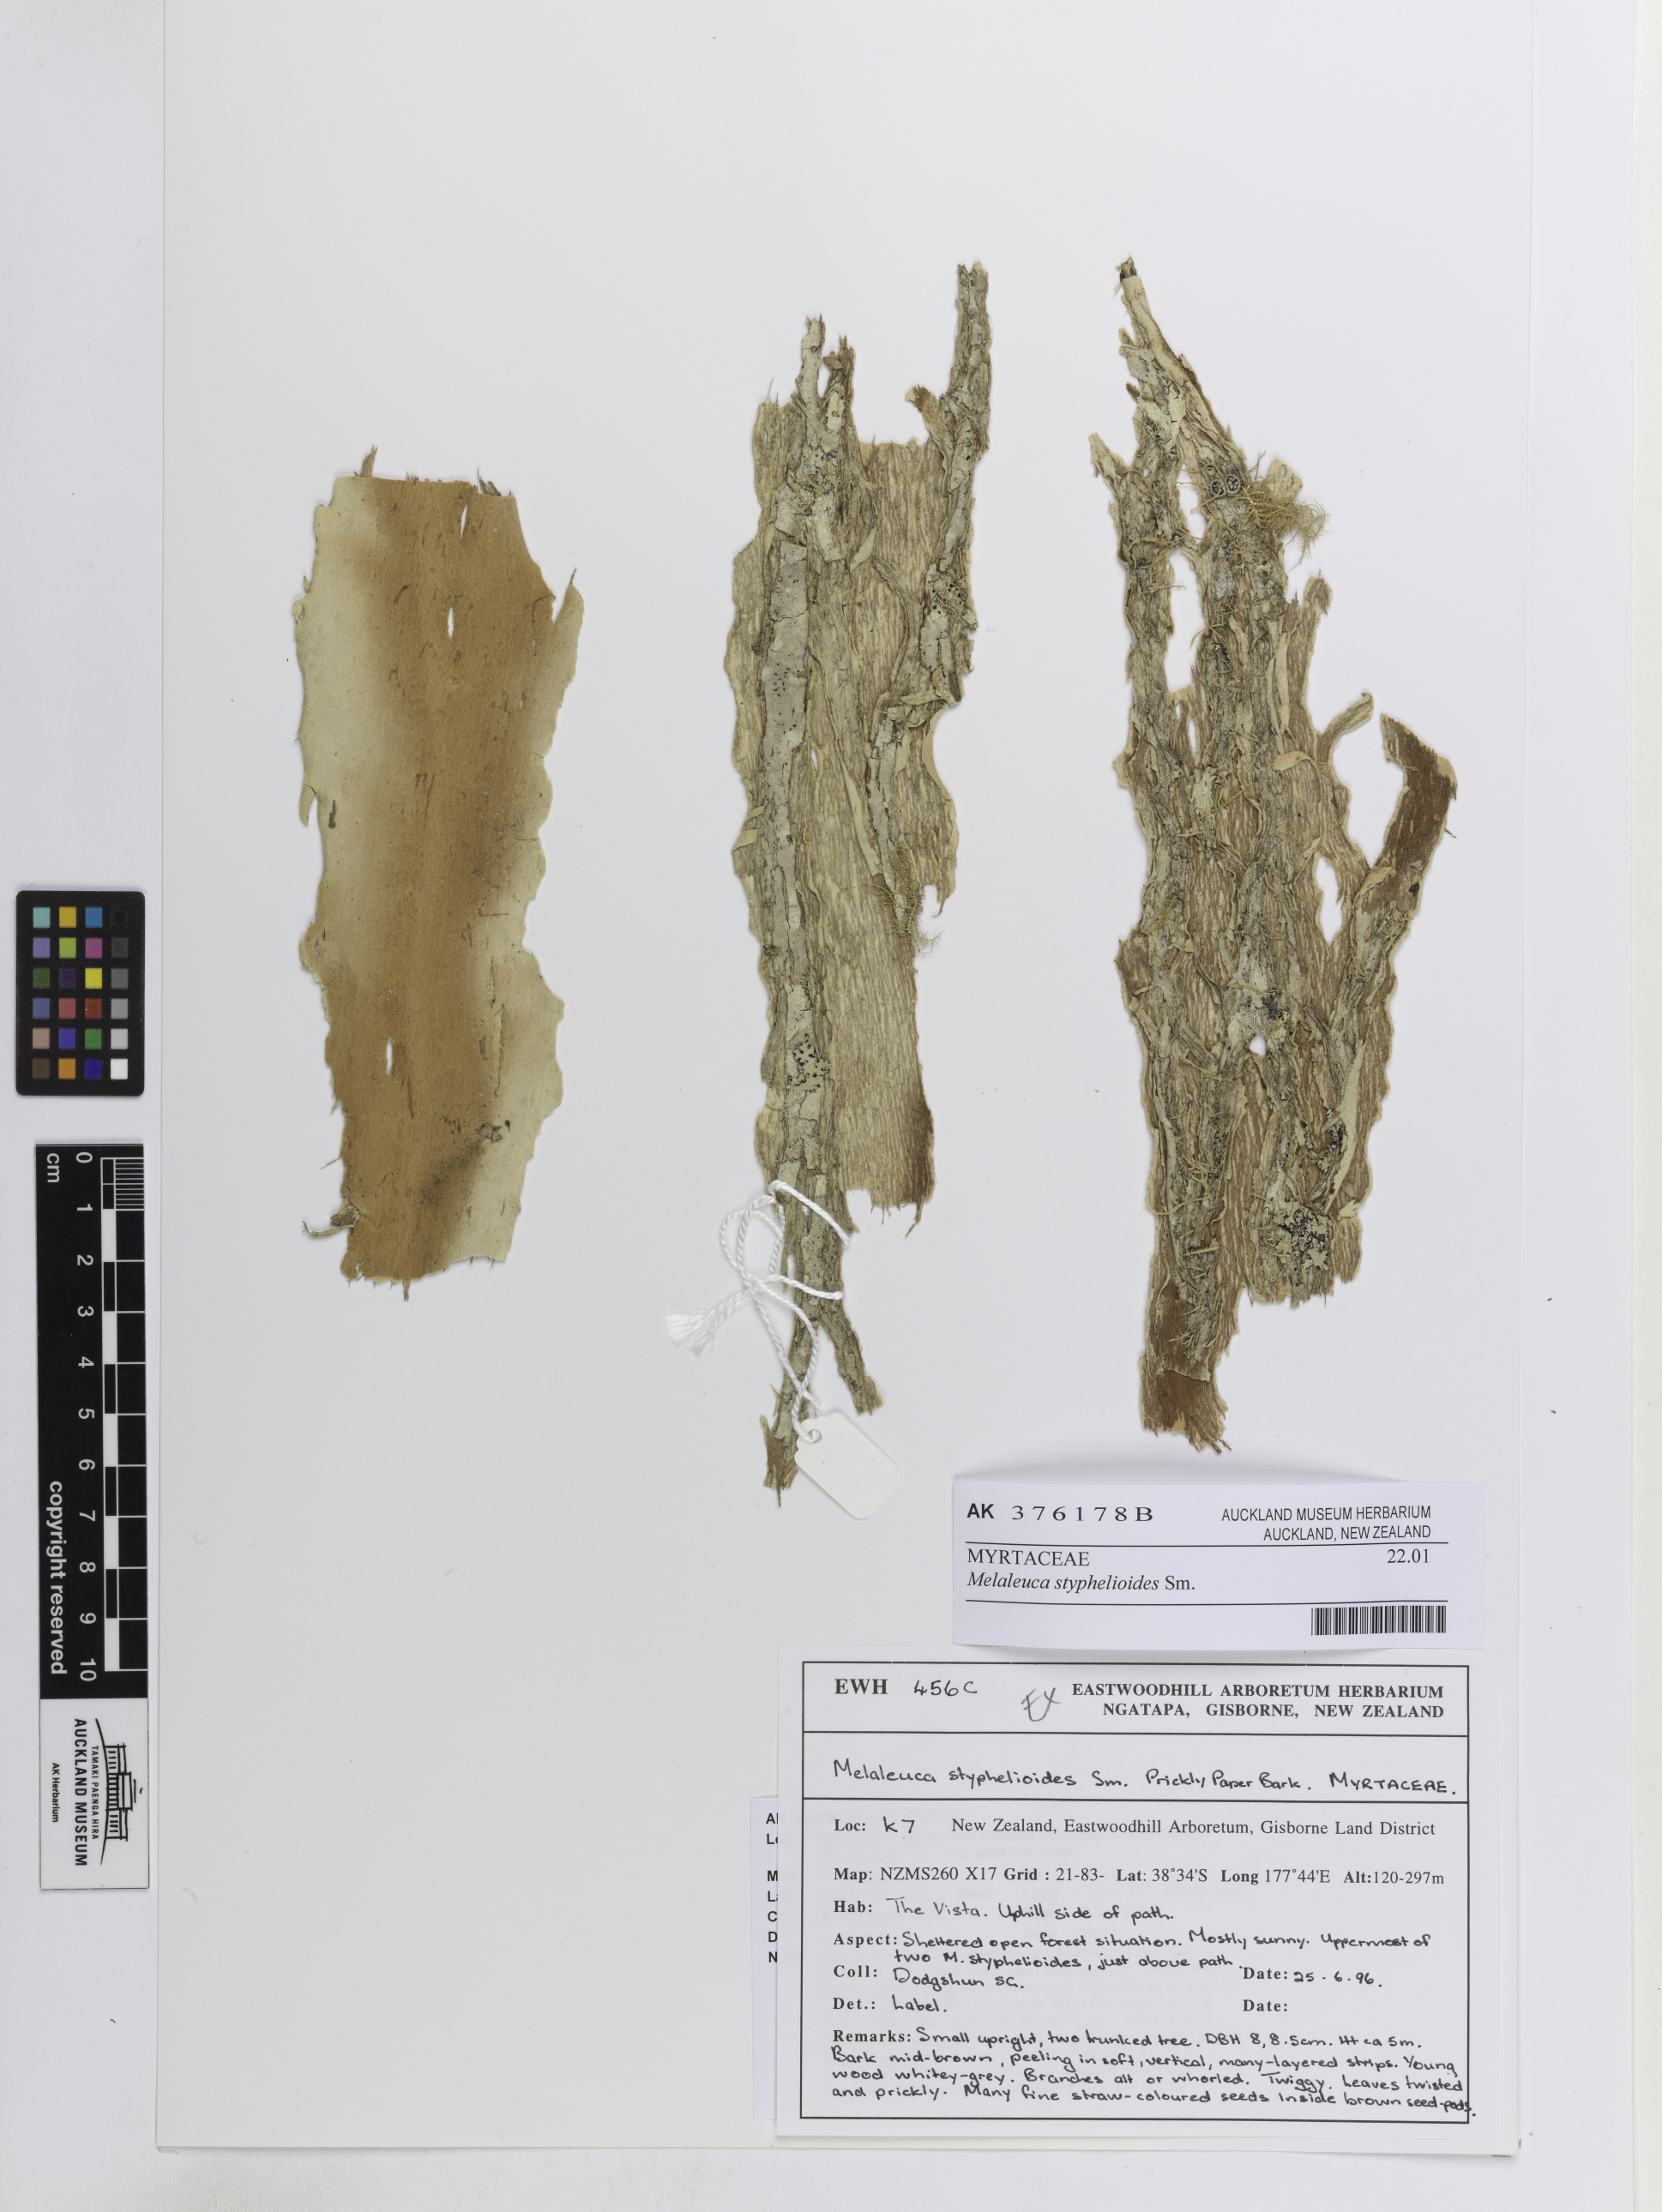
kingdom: Plantae
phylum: Tracheophyta
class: Magnoliopsida
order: Myrtales
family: Myrtaceae
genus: Melaleuca
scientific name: Melaleuca styphelioides
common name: Prickly paperbark
